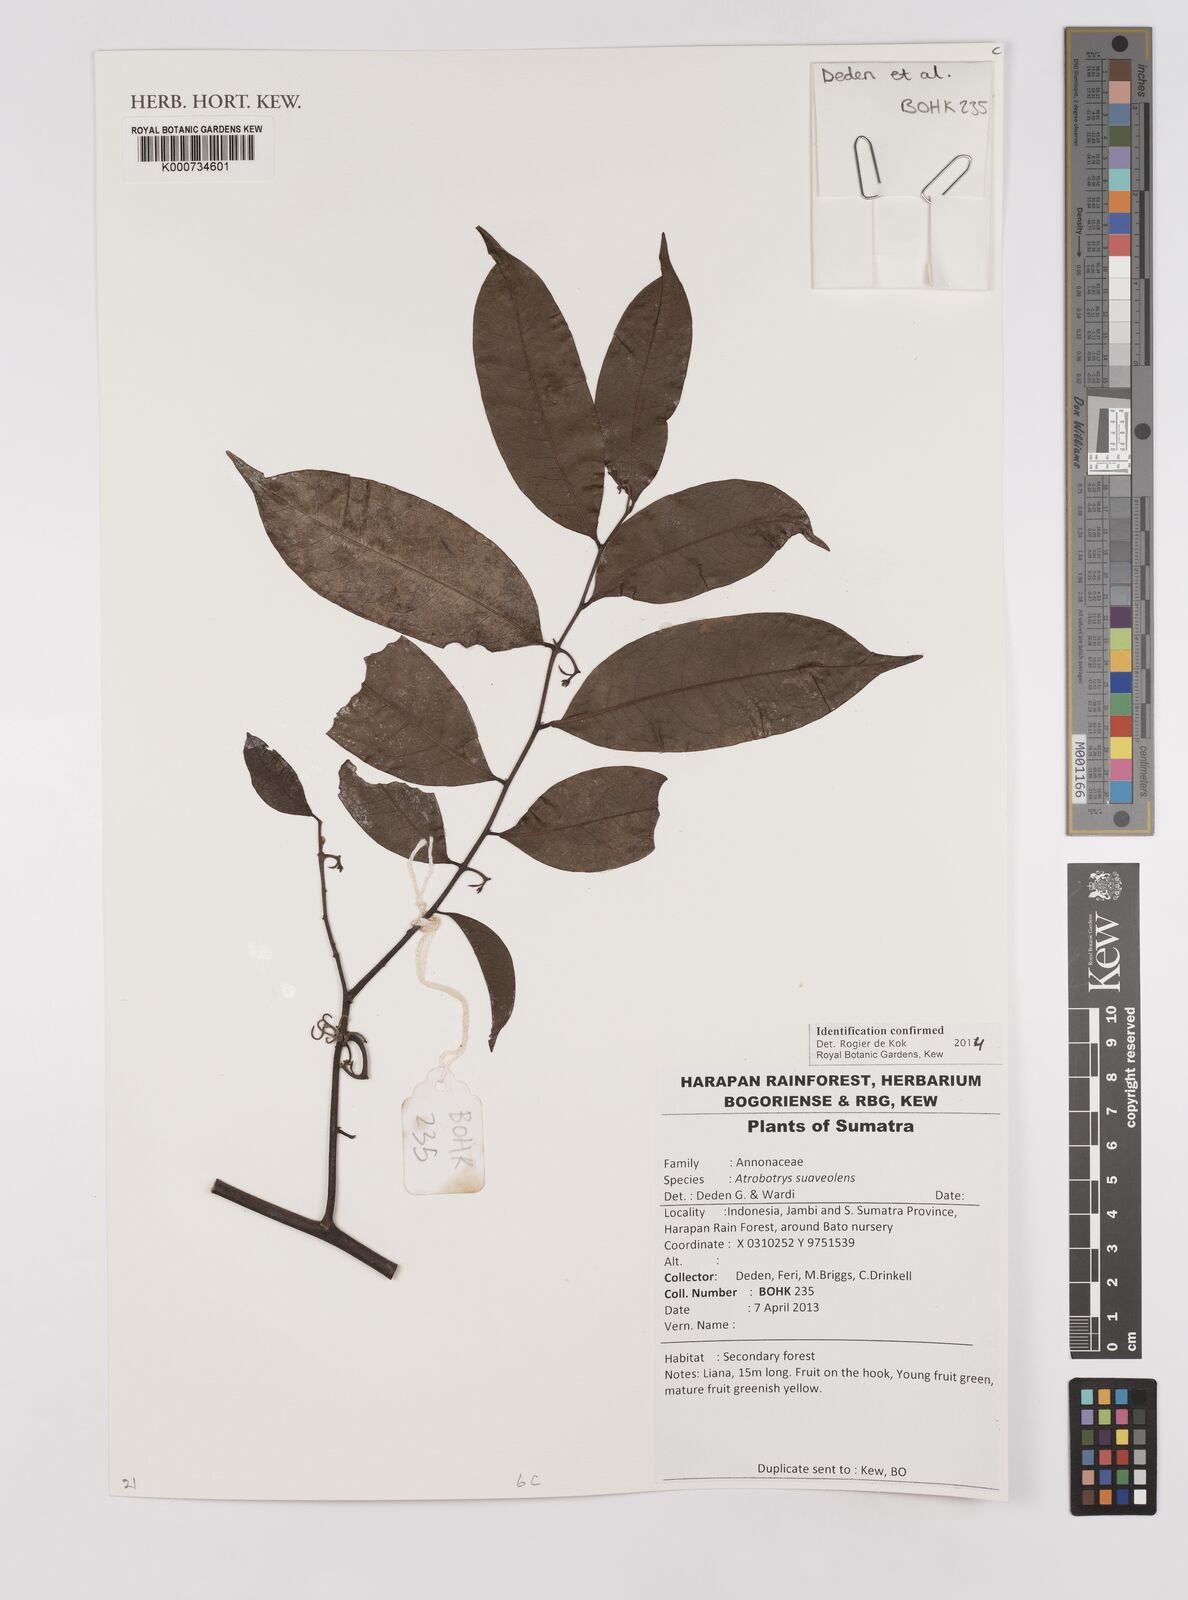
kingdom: Plantae
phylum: Tracheophyta
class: Magnoliopsida
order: Magnoliales
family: Annonaceae
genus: Artabotrys
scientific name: Artabotrys suaveolens
